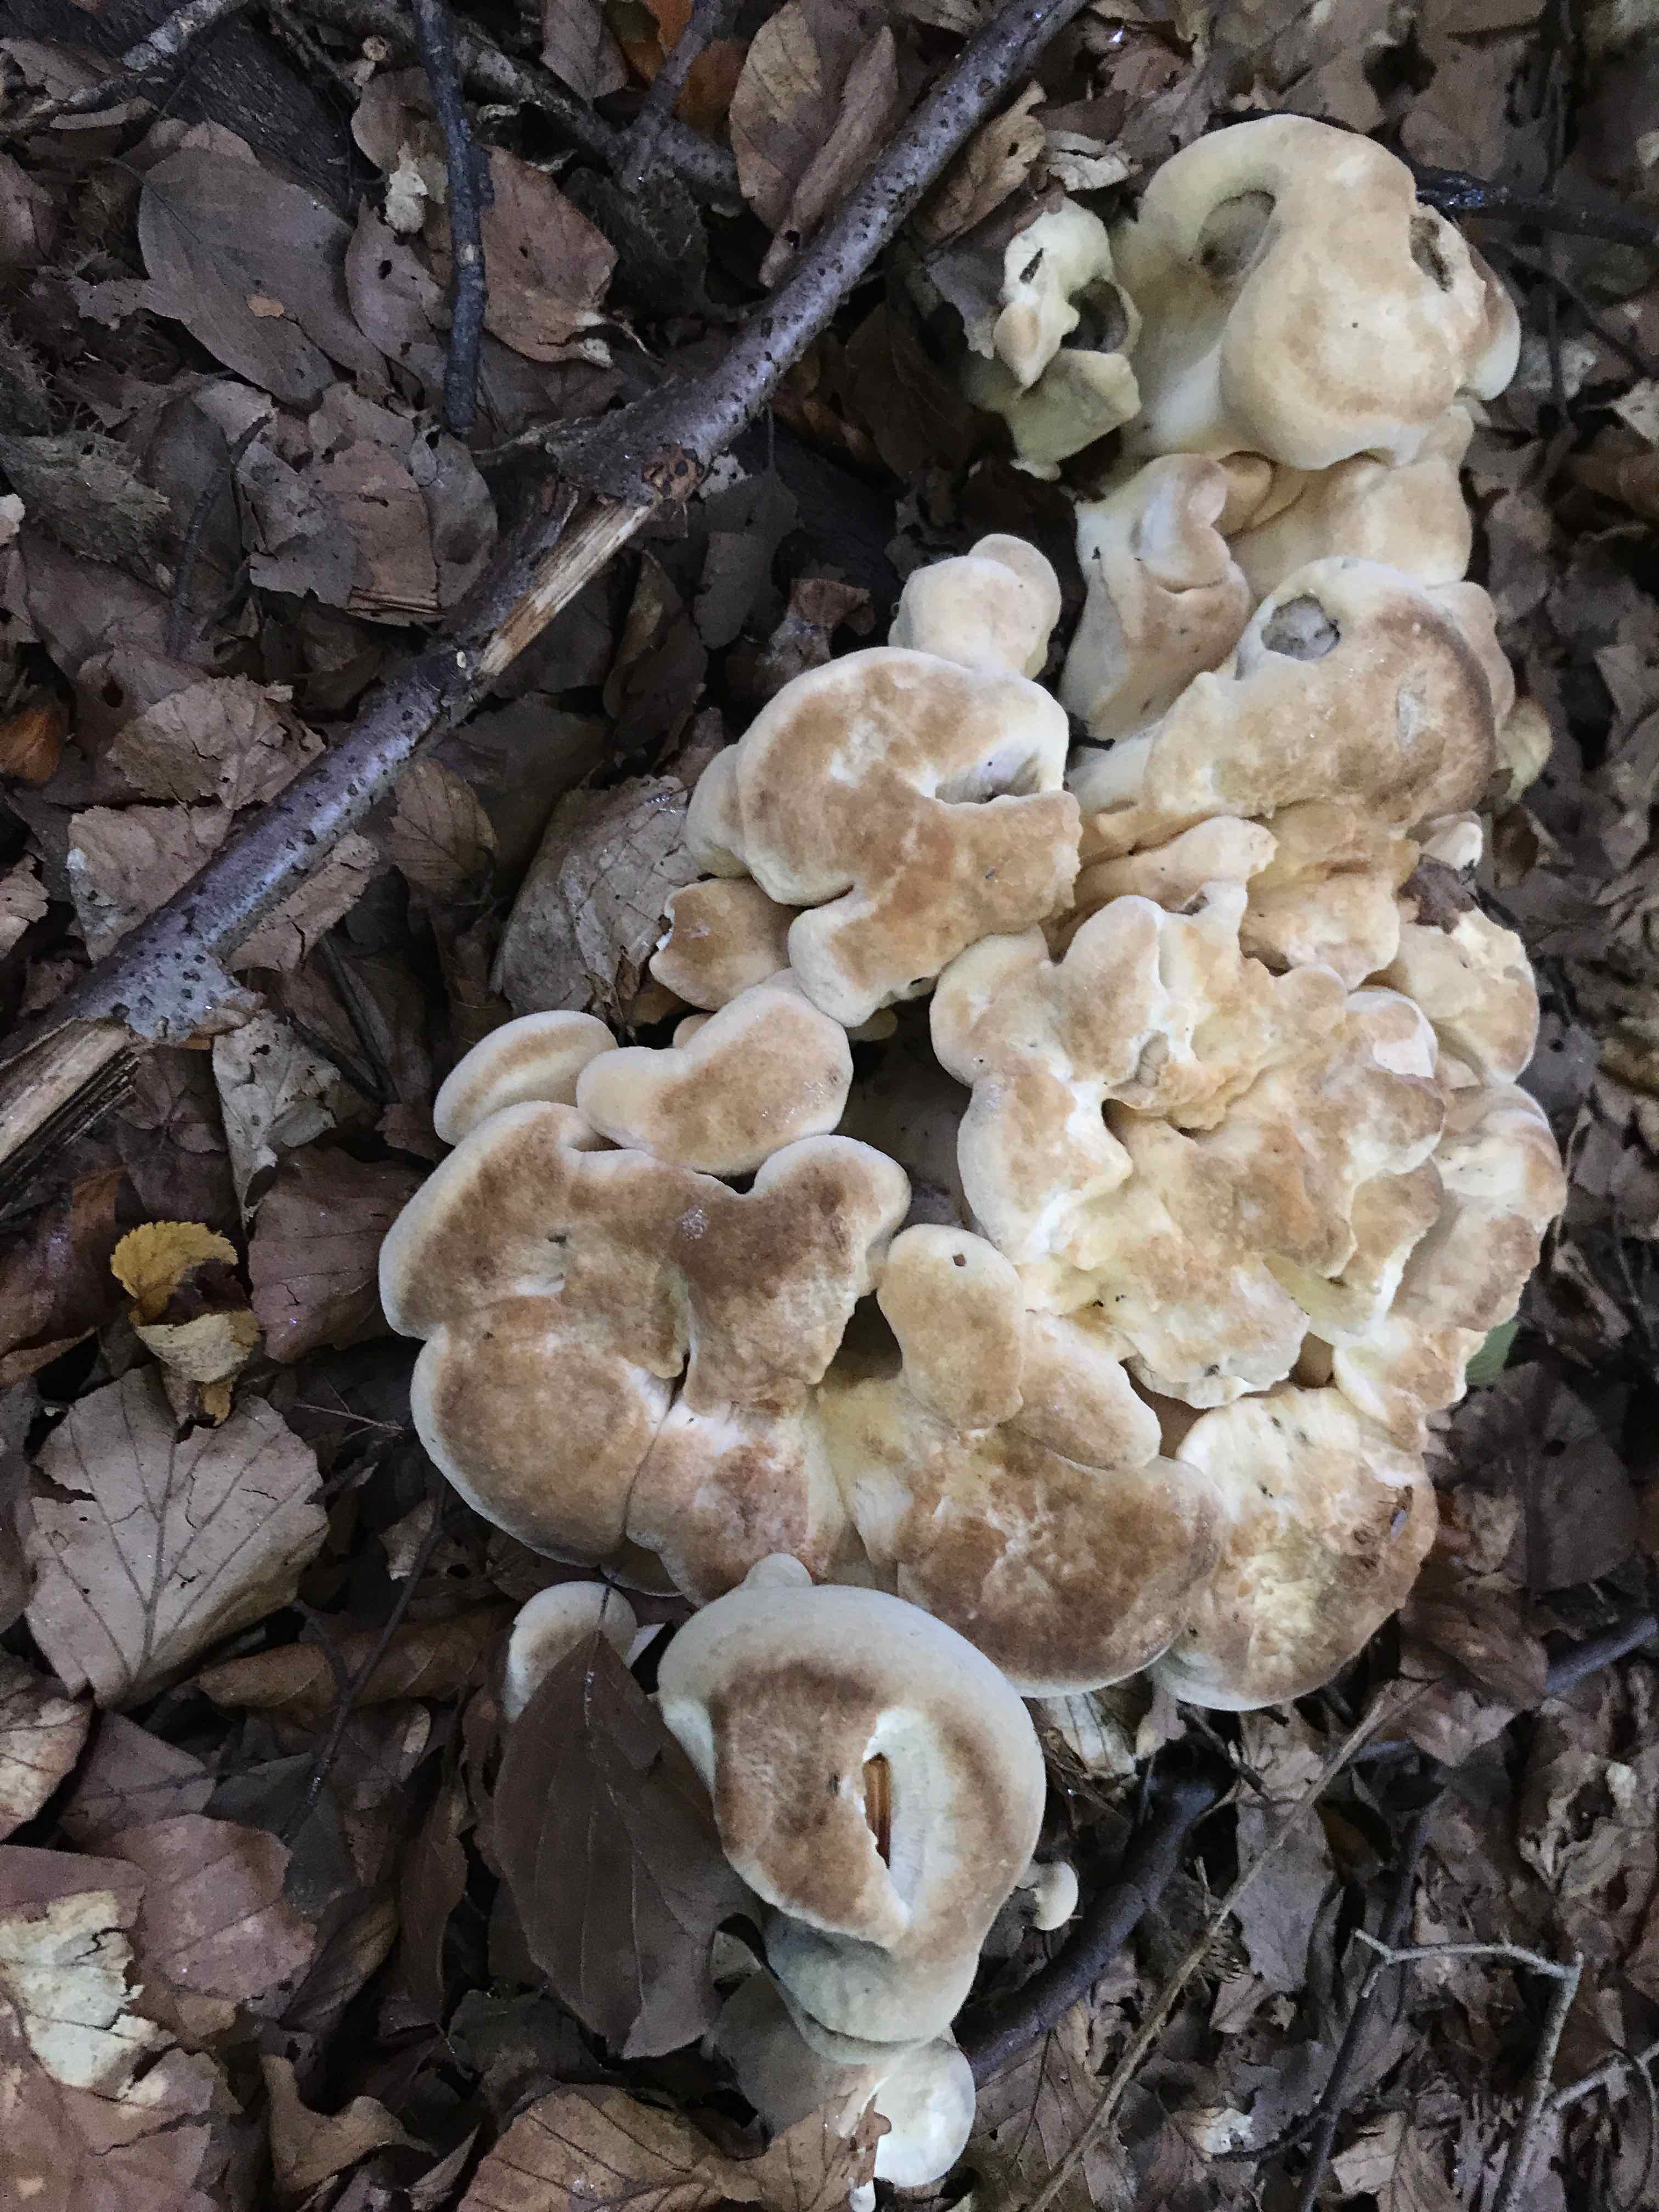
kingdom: Fungi
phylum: Basidiomycota
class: Agaricomycetes
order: Polyporales
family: Meripilaceae
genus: Meripilus
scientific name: Meripilus giganteus
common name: kæmpeporesvamp
